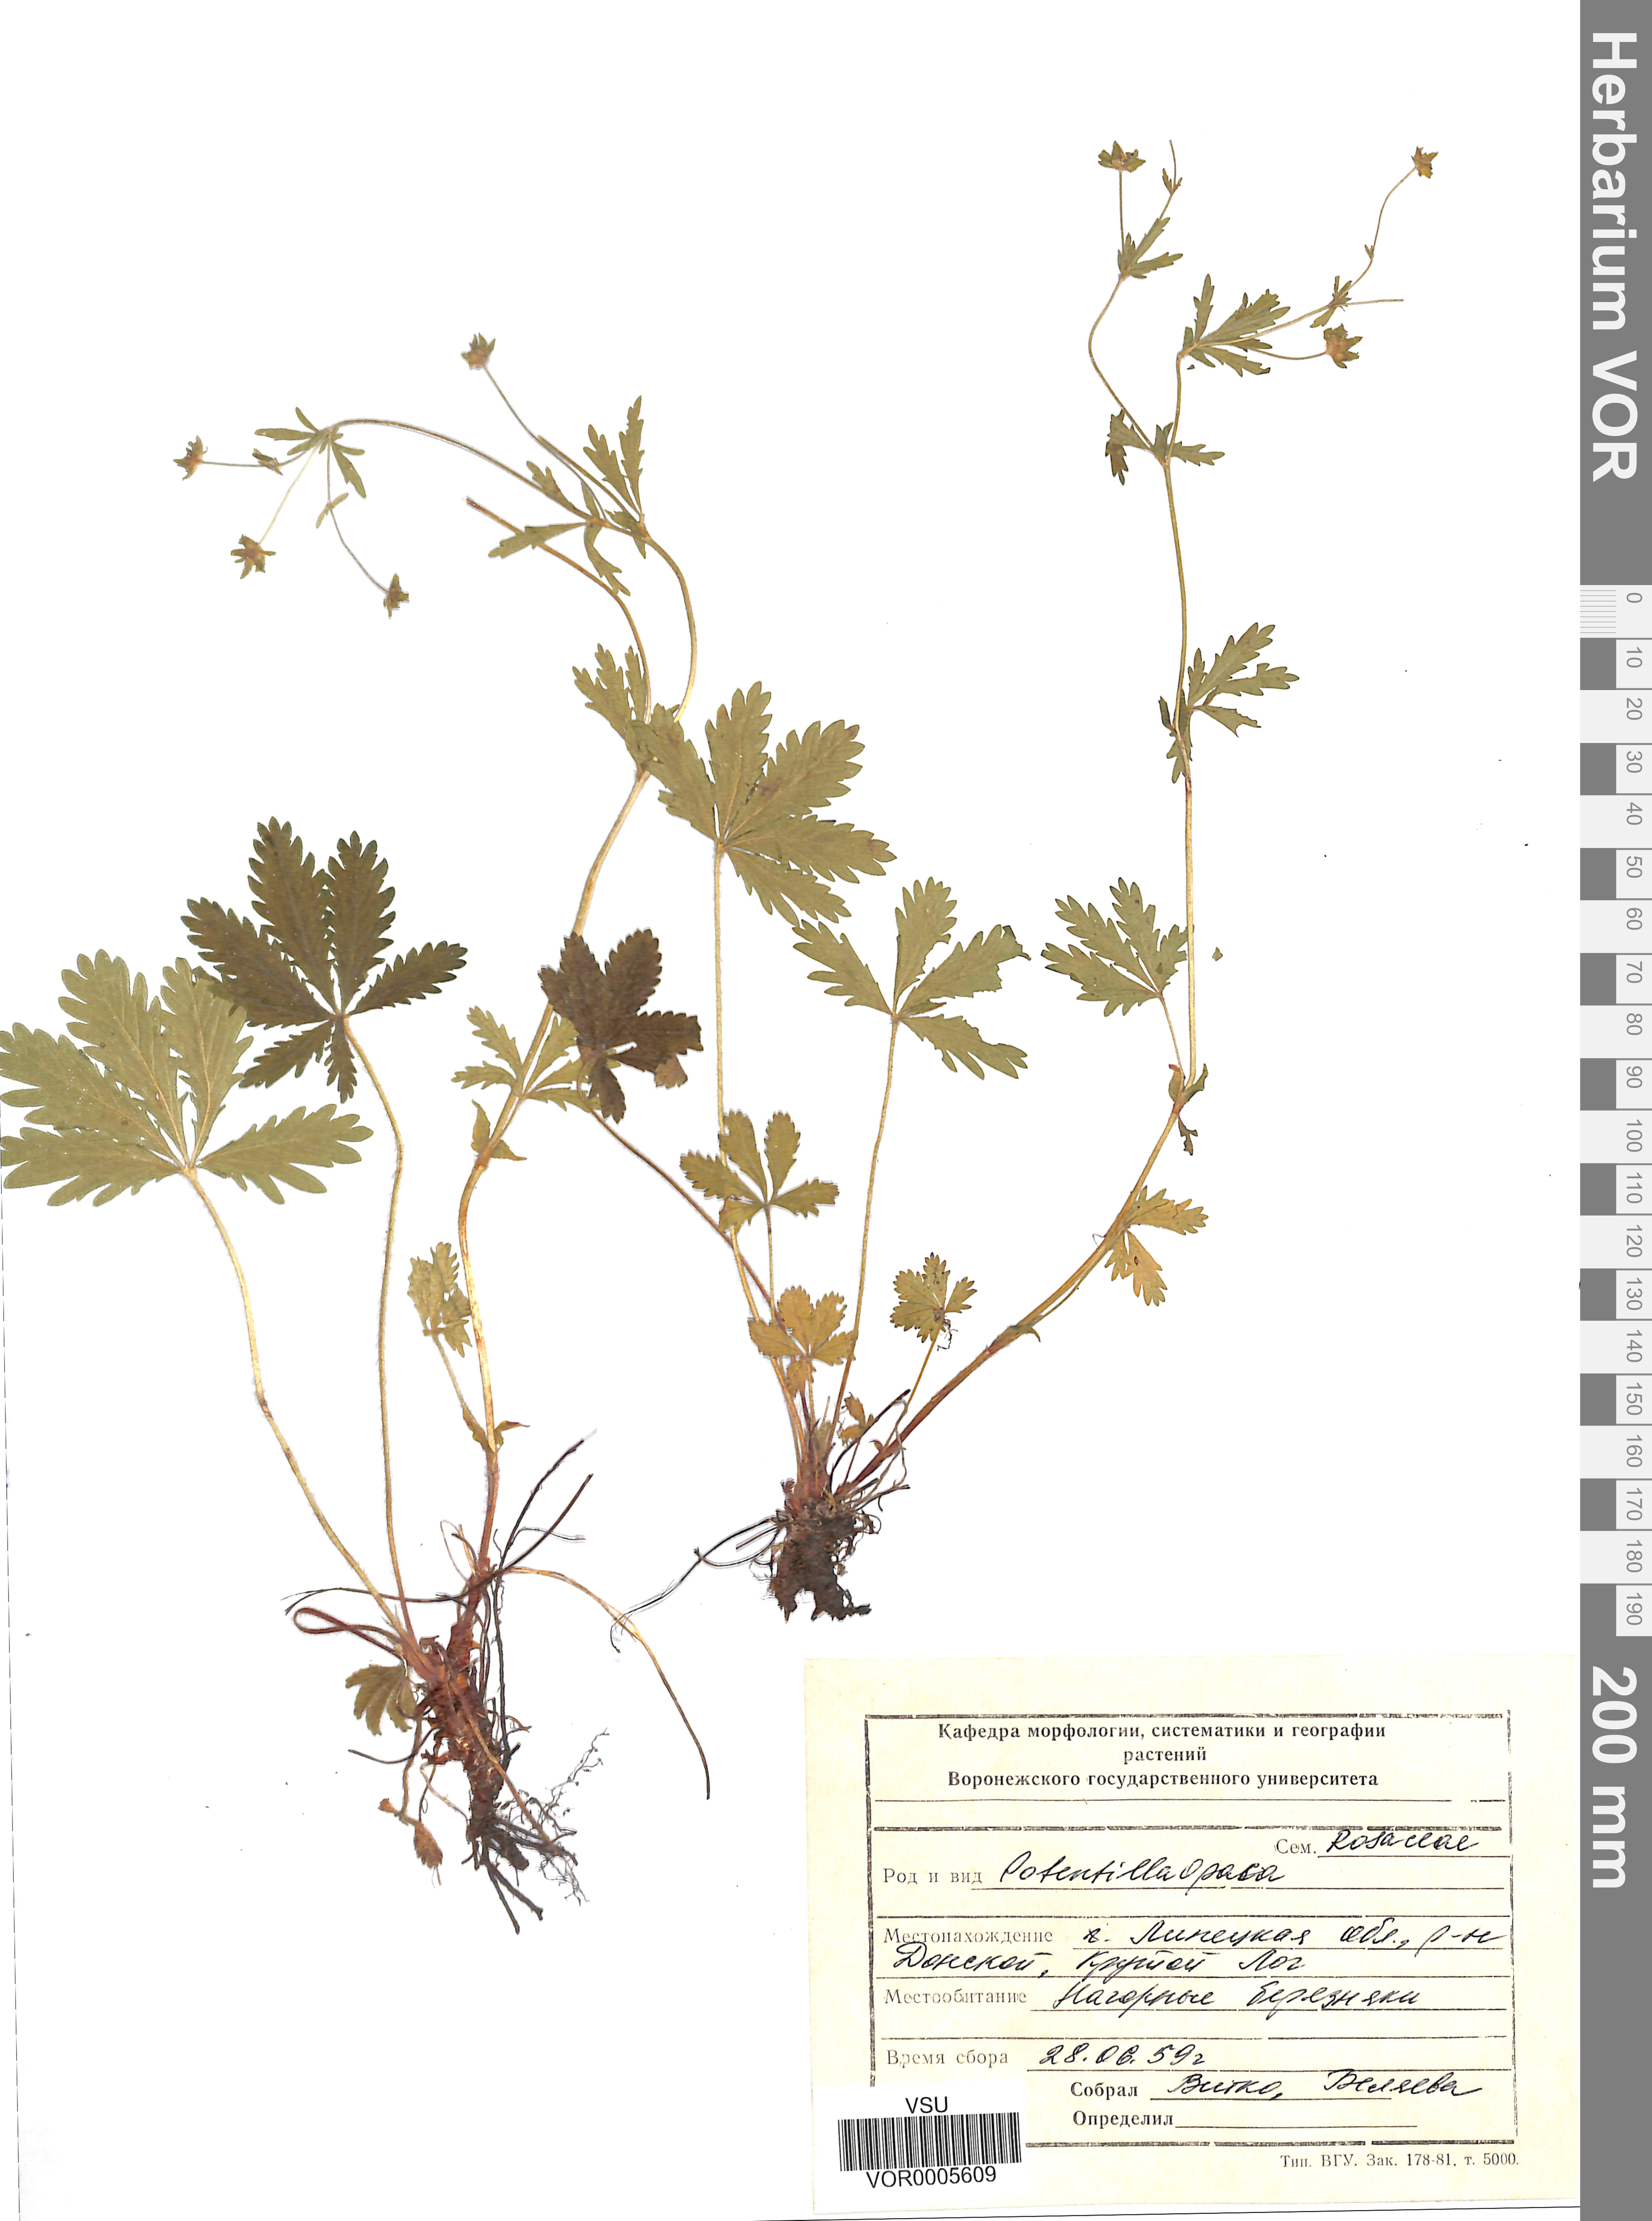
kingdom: Plantae
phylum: Tracheophyta
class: Magnoliopsida
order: Rosales
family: Rosaceae
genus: Potentilla
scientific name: Potentilla thuringiaca
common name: European cinquefoil
